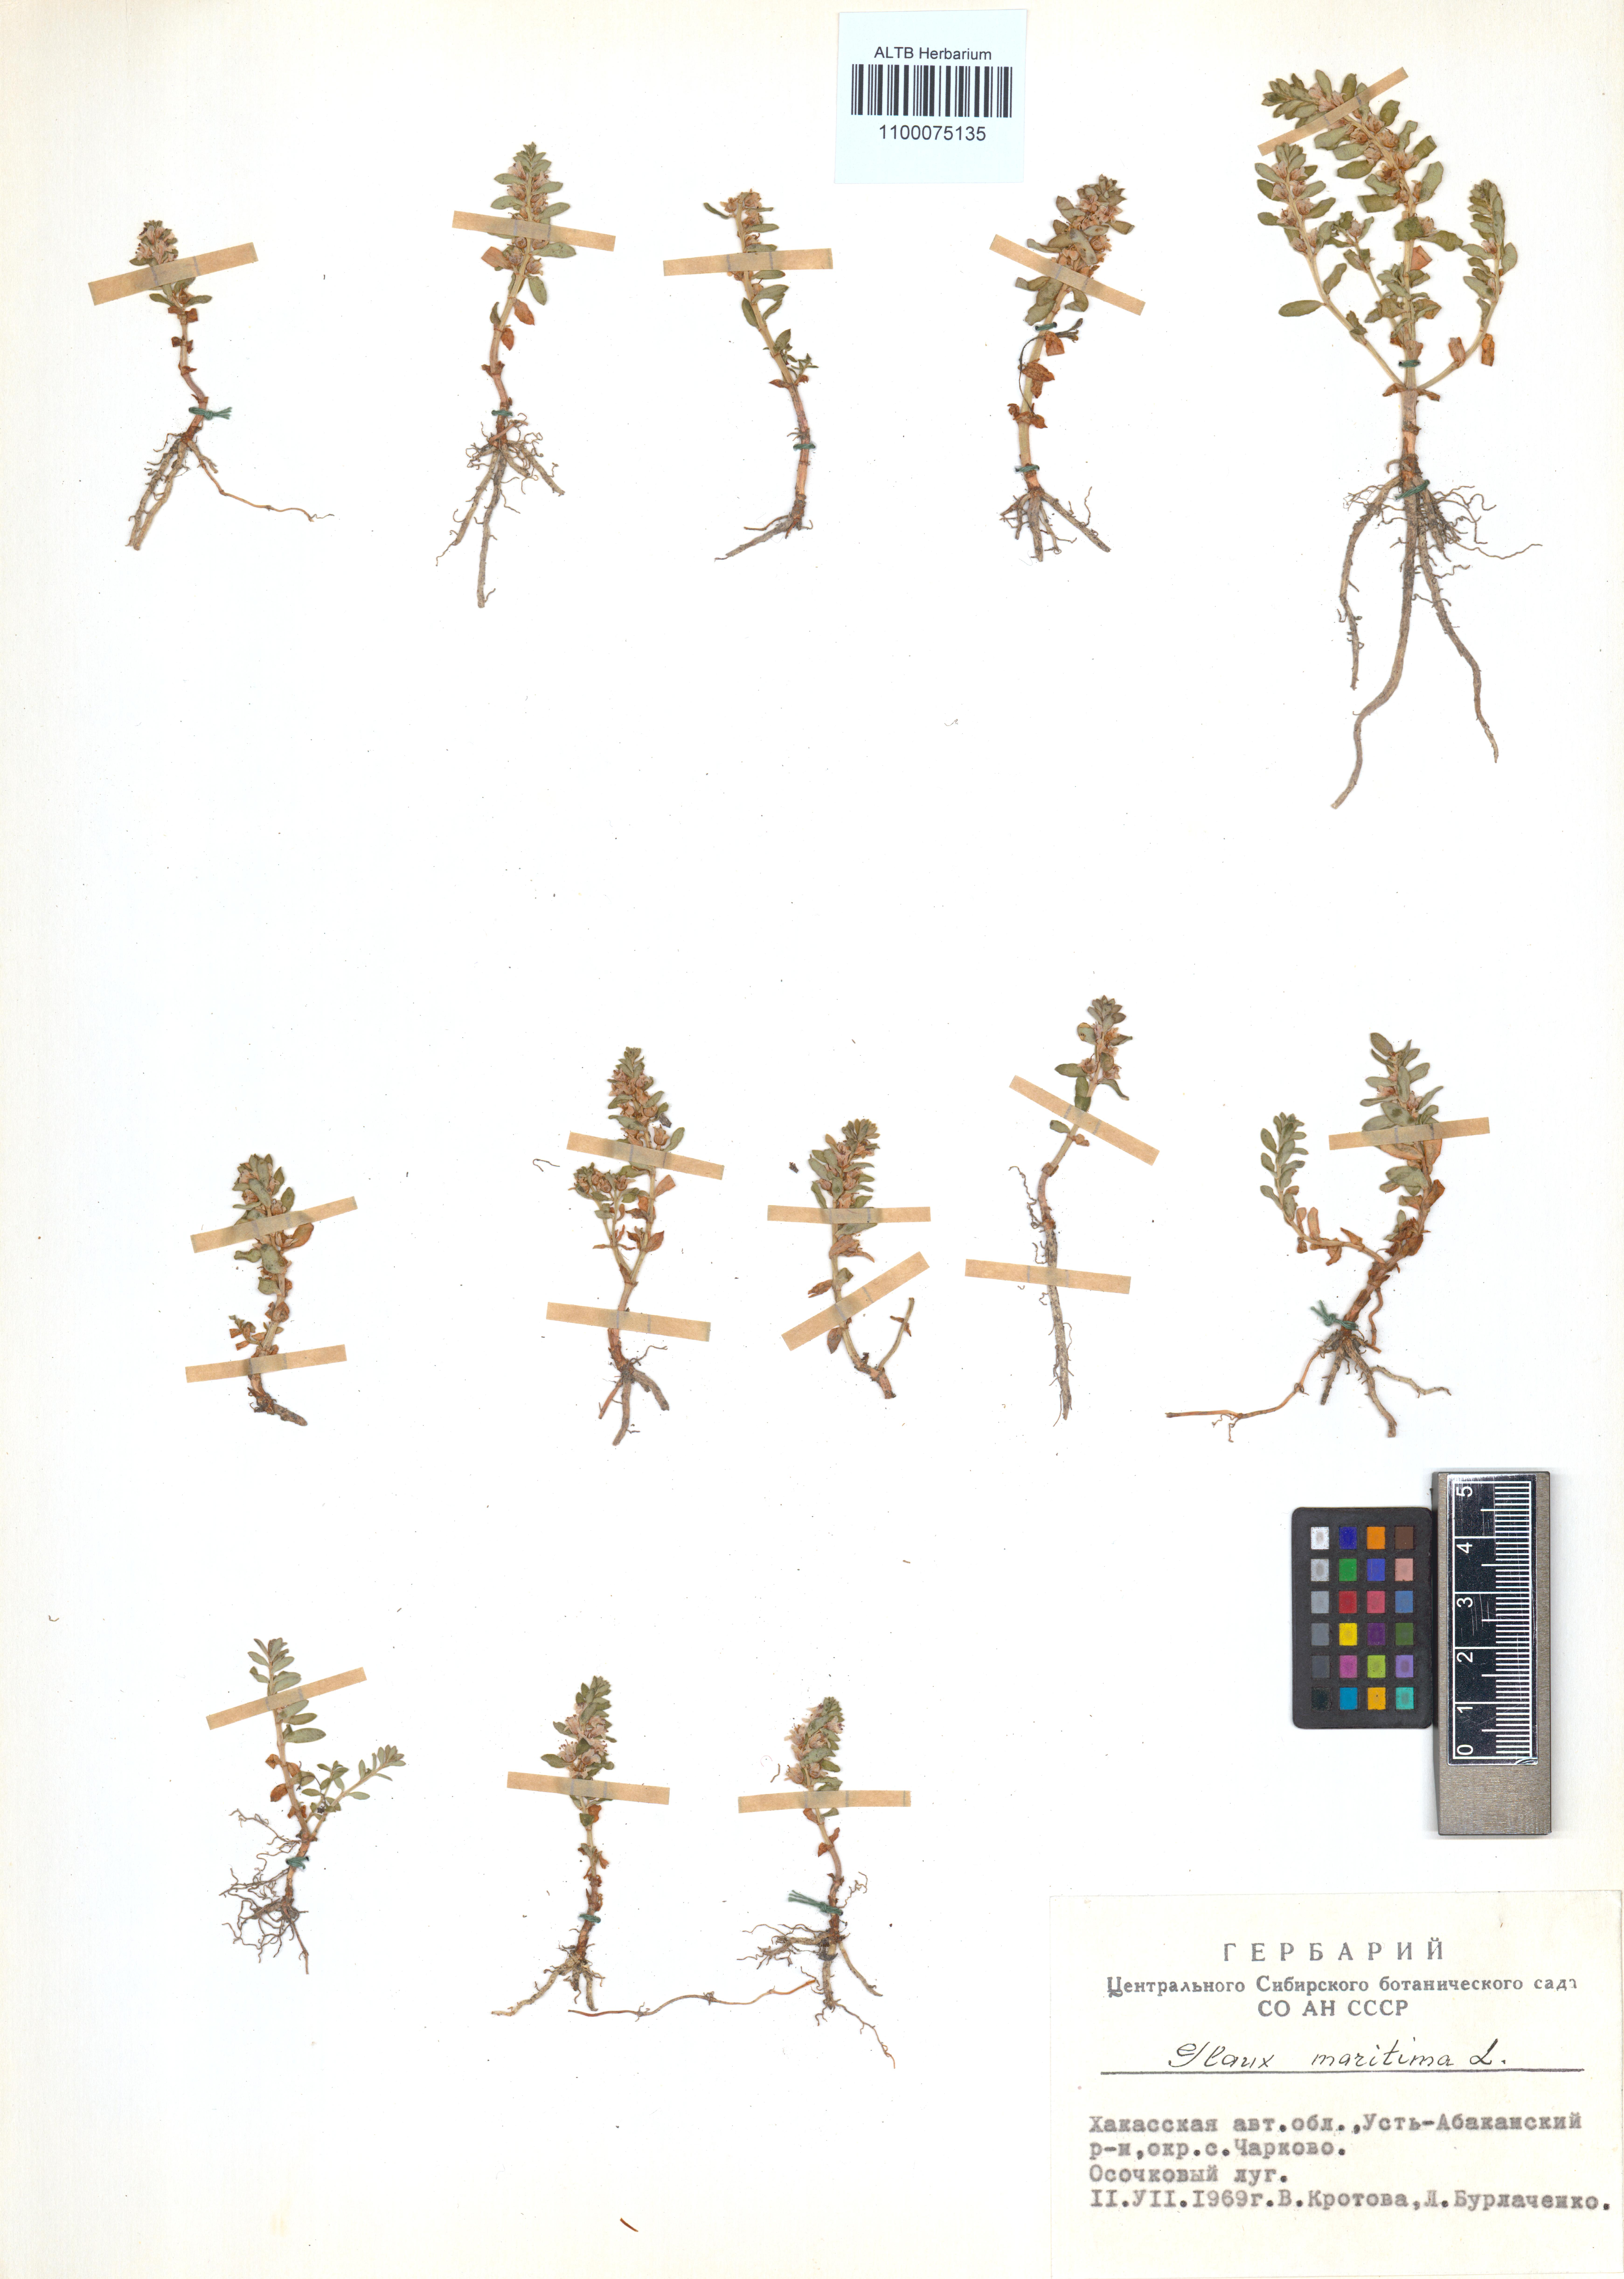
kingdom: Plantae
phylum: Tracheophyta
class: Magnoliopsida
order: Ericales
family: Primulaceae
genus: Lysimachia
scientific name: Lysimachia maritima
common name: Sea milkwort
